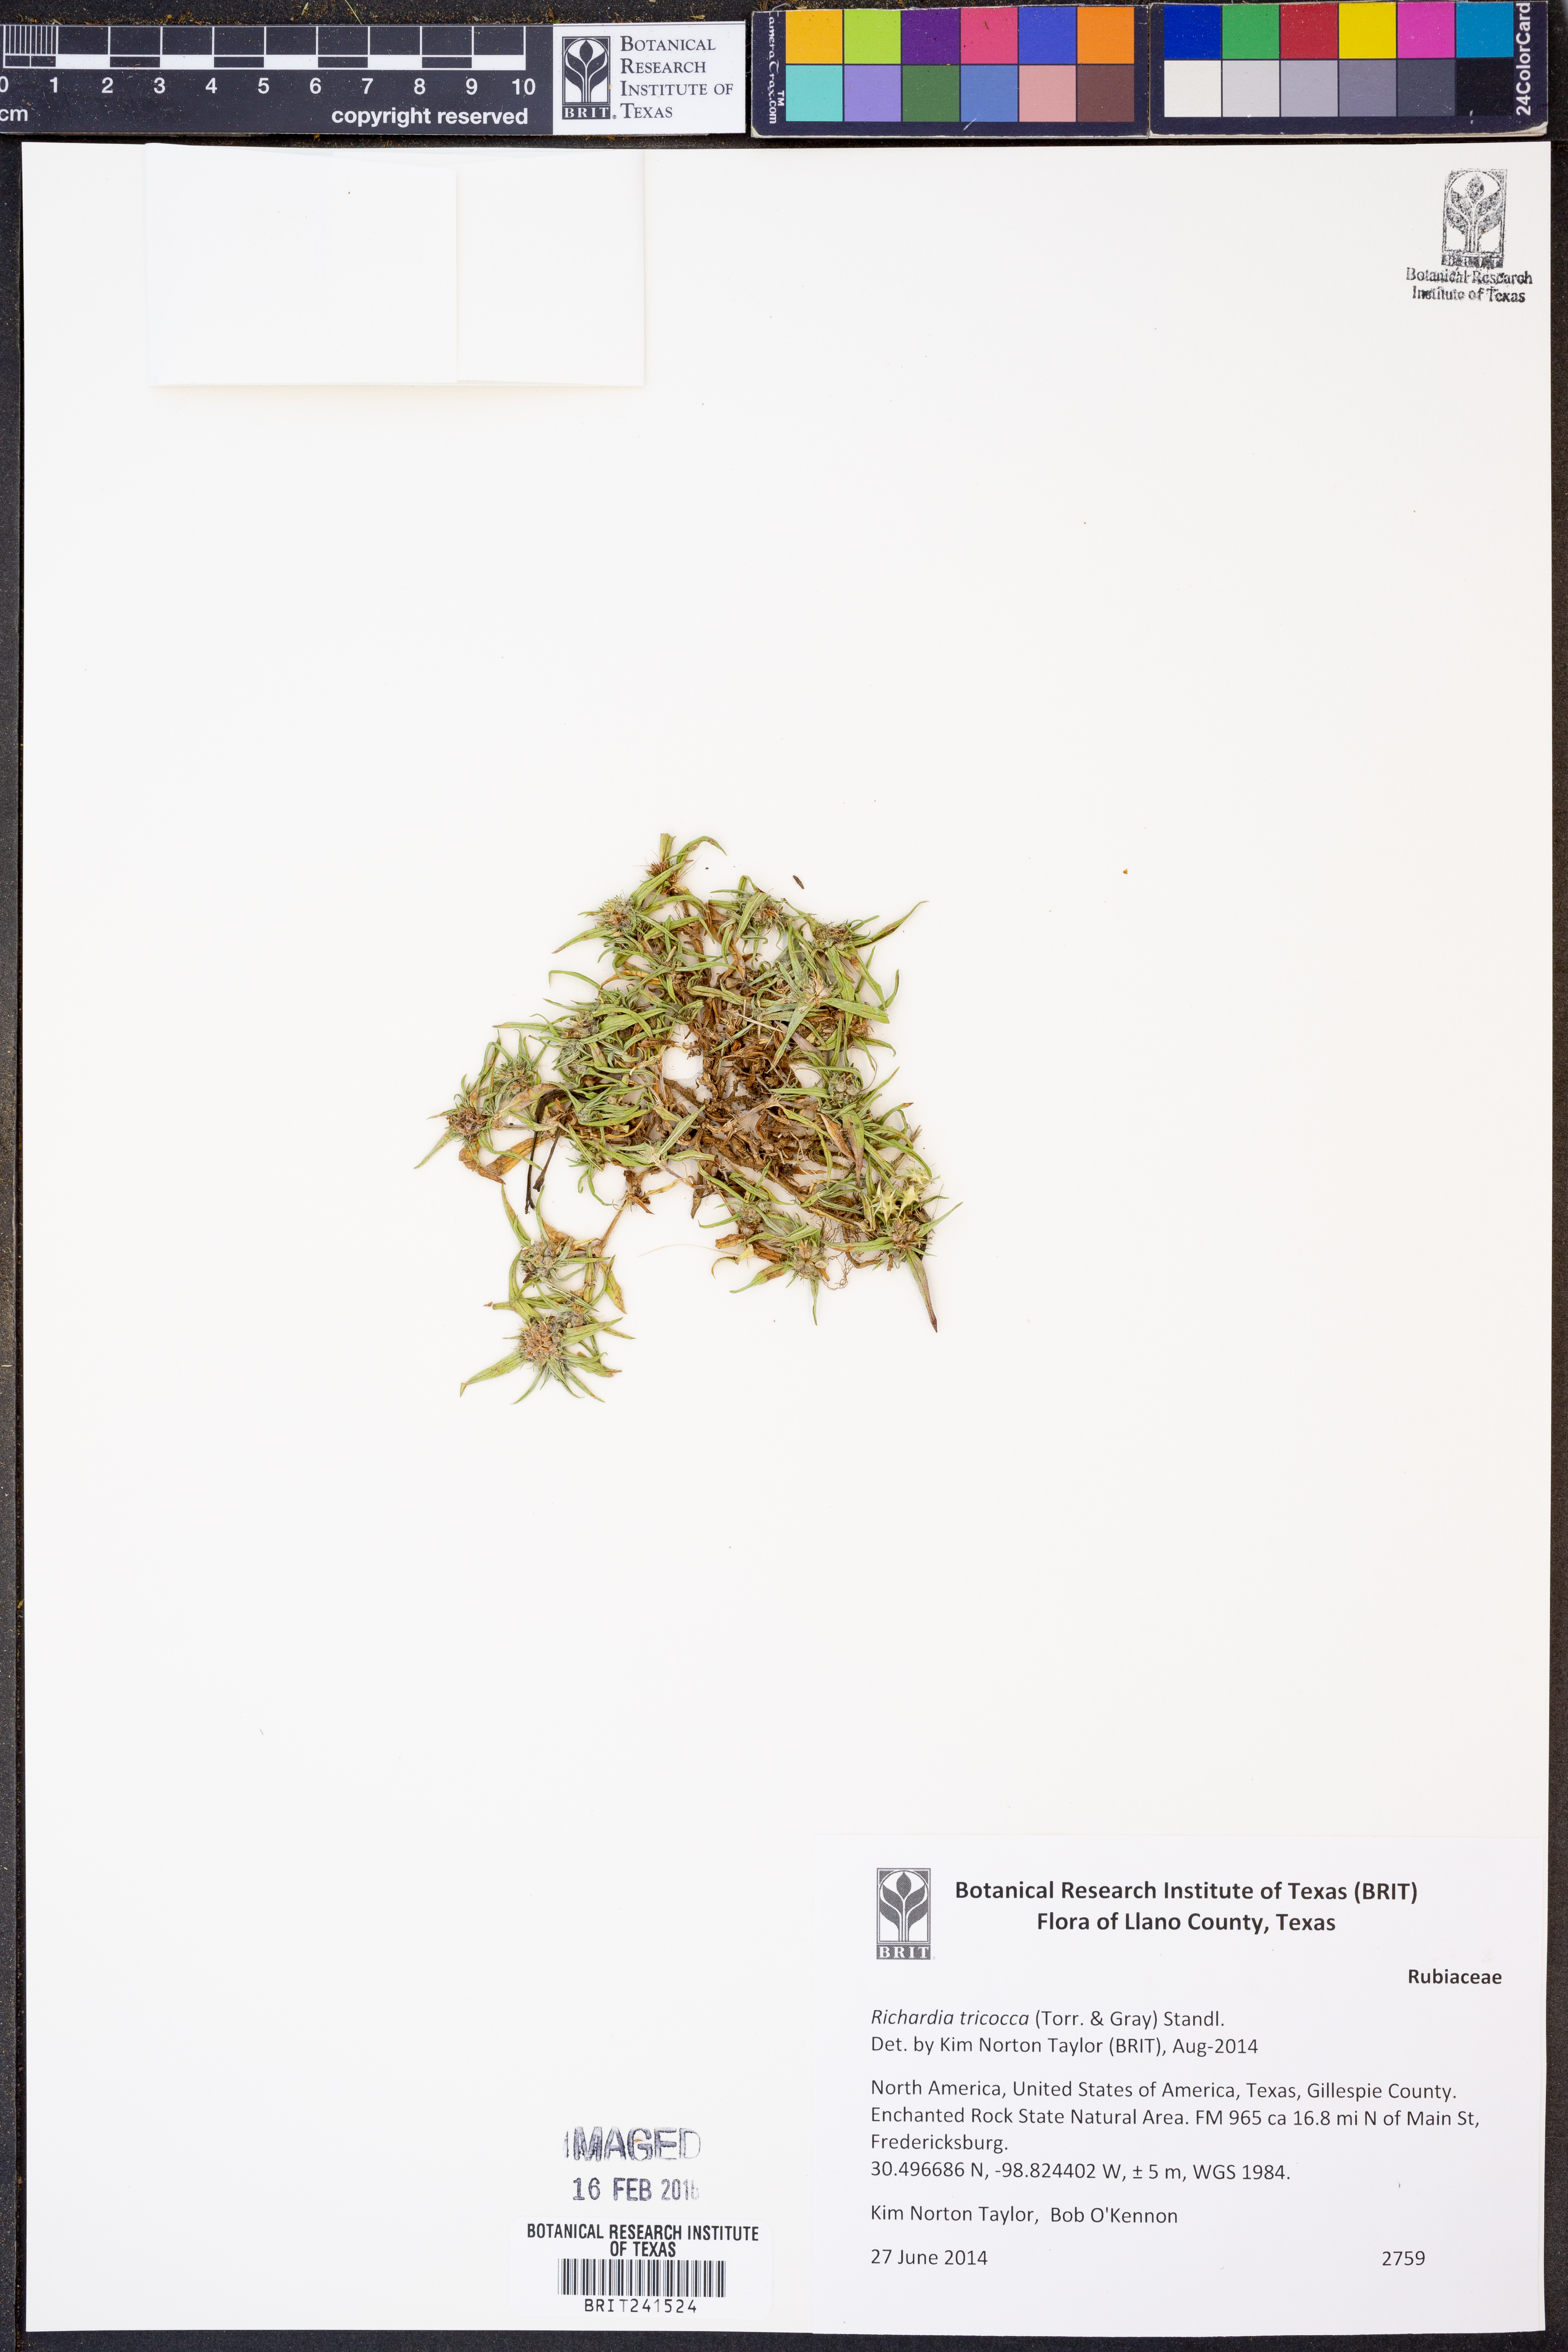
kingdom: Plantae
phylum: Tracheophyta
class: Magnoliopsida
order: Gentianales
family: Rubiaceae
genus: Richardia
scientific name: Richardia tricocca
